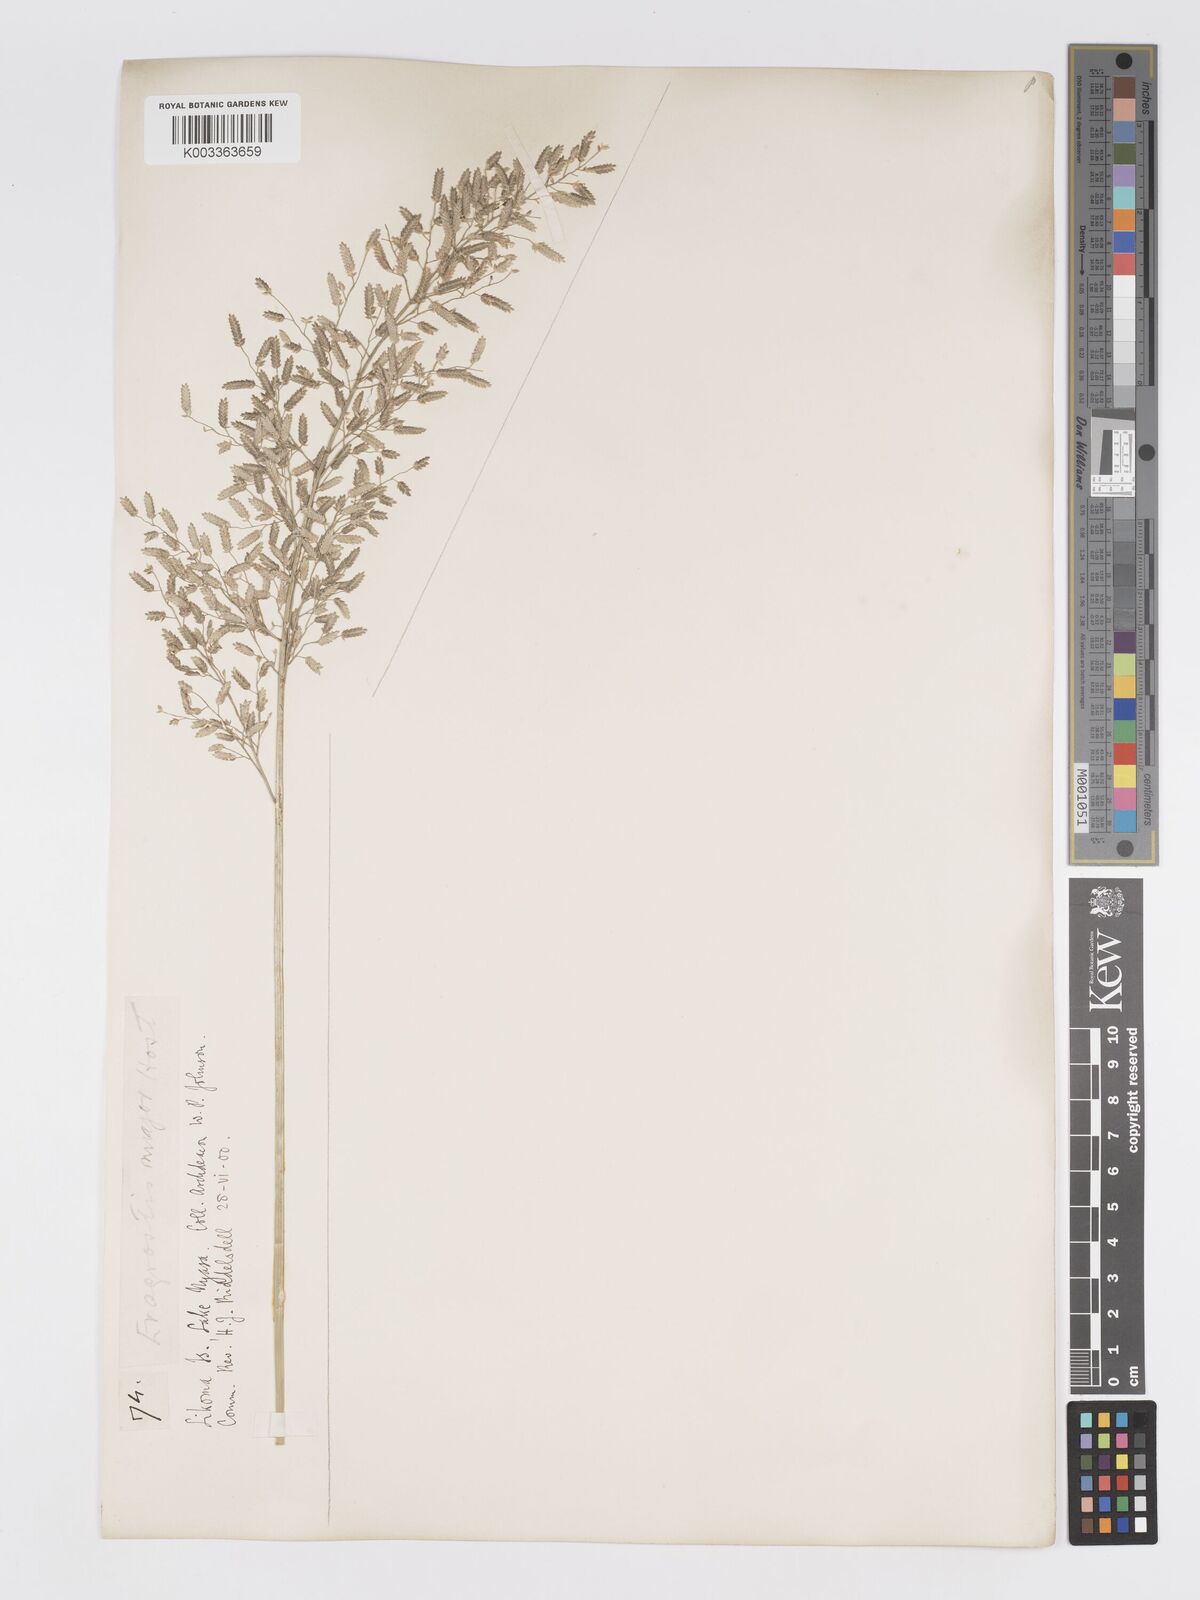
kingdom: Plantae
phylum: Tracheophyta
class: Liliopsida
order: Poales
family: Poaceae
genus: Eragrostis
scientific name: Eragrostis cilianensis
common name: Stinkgrass
